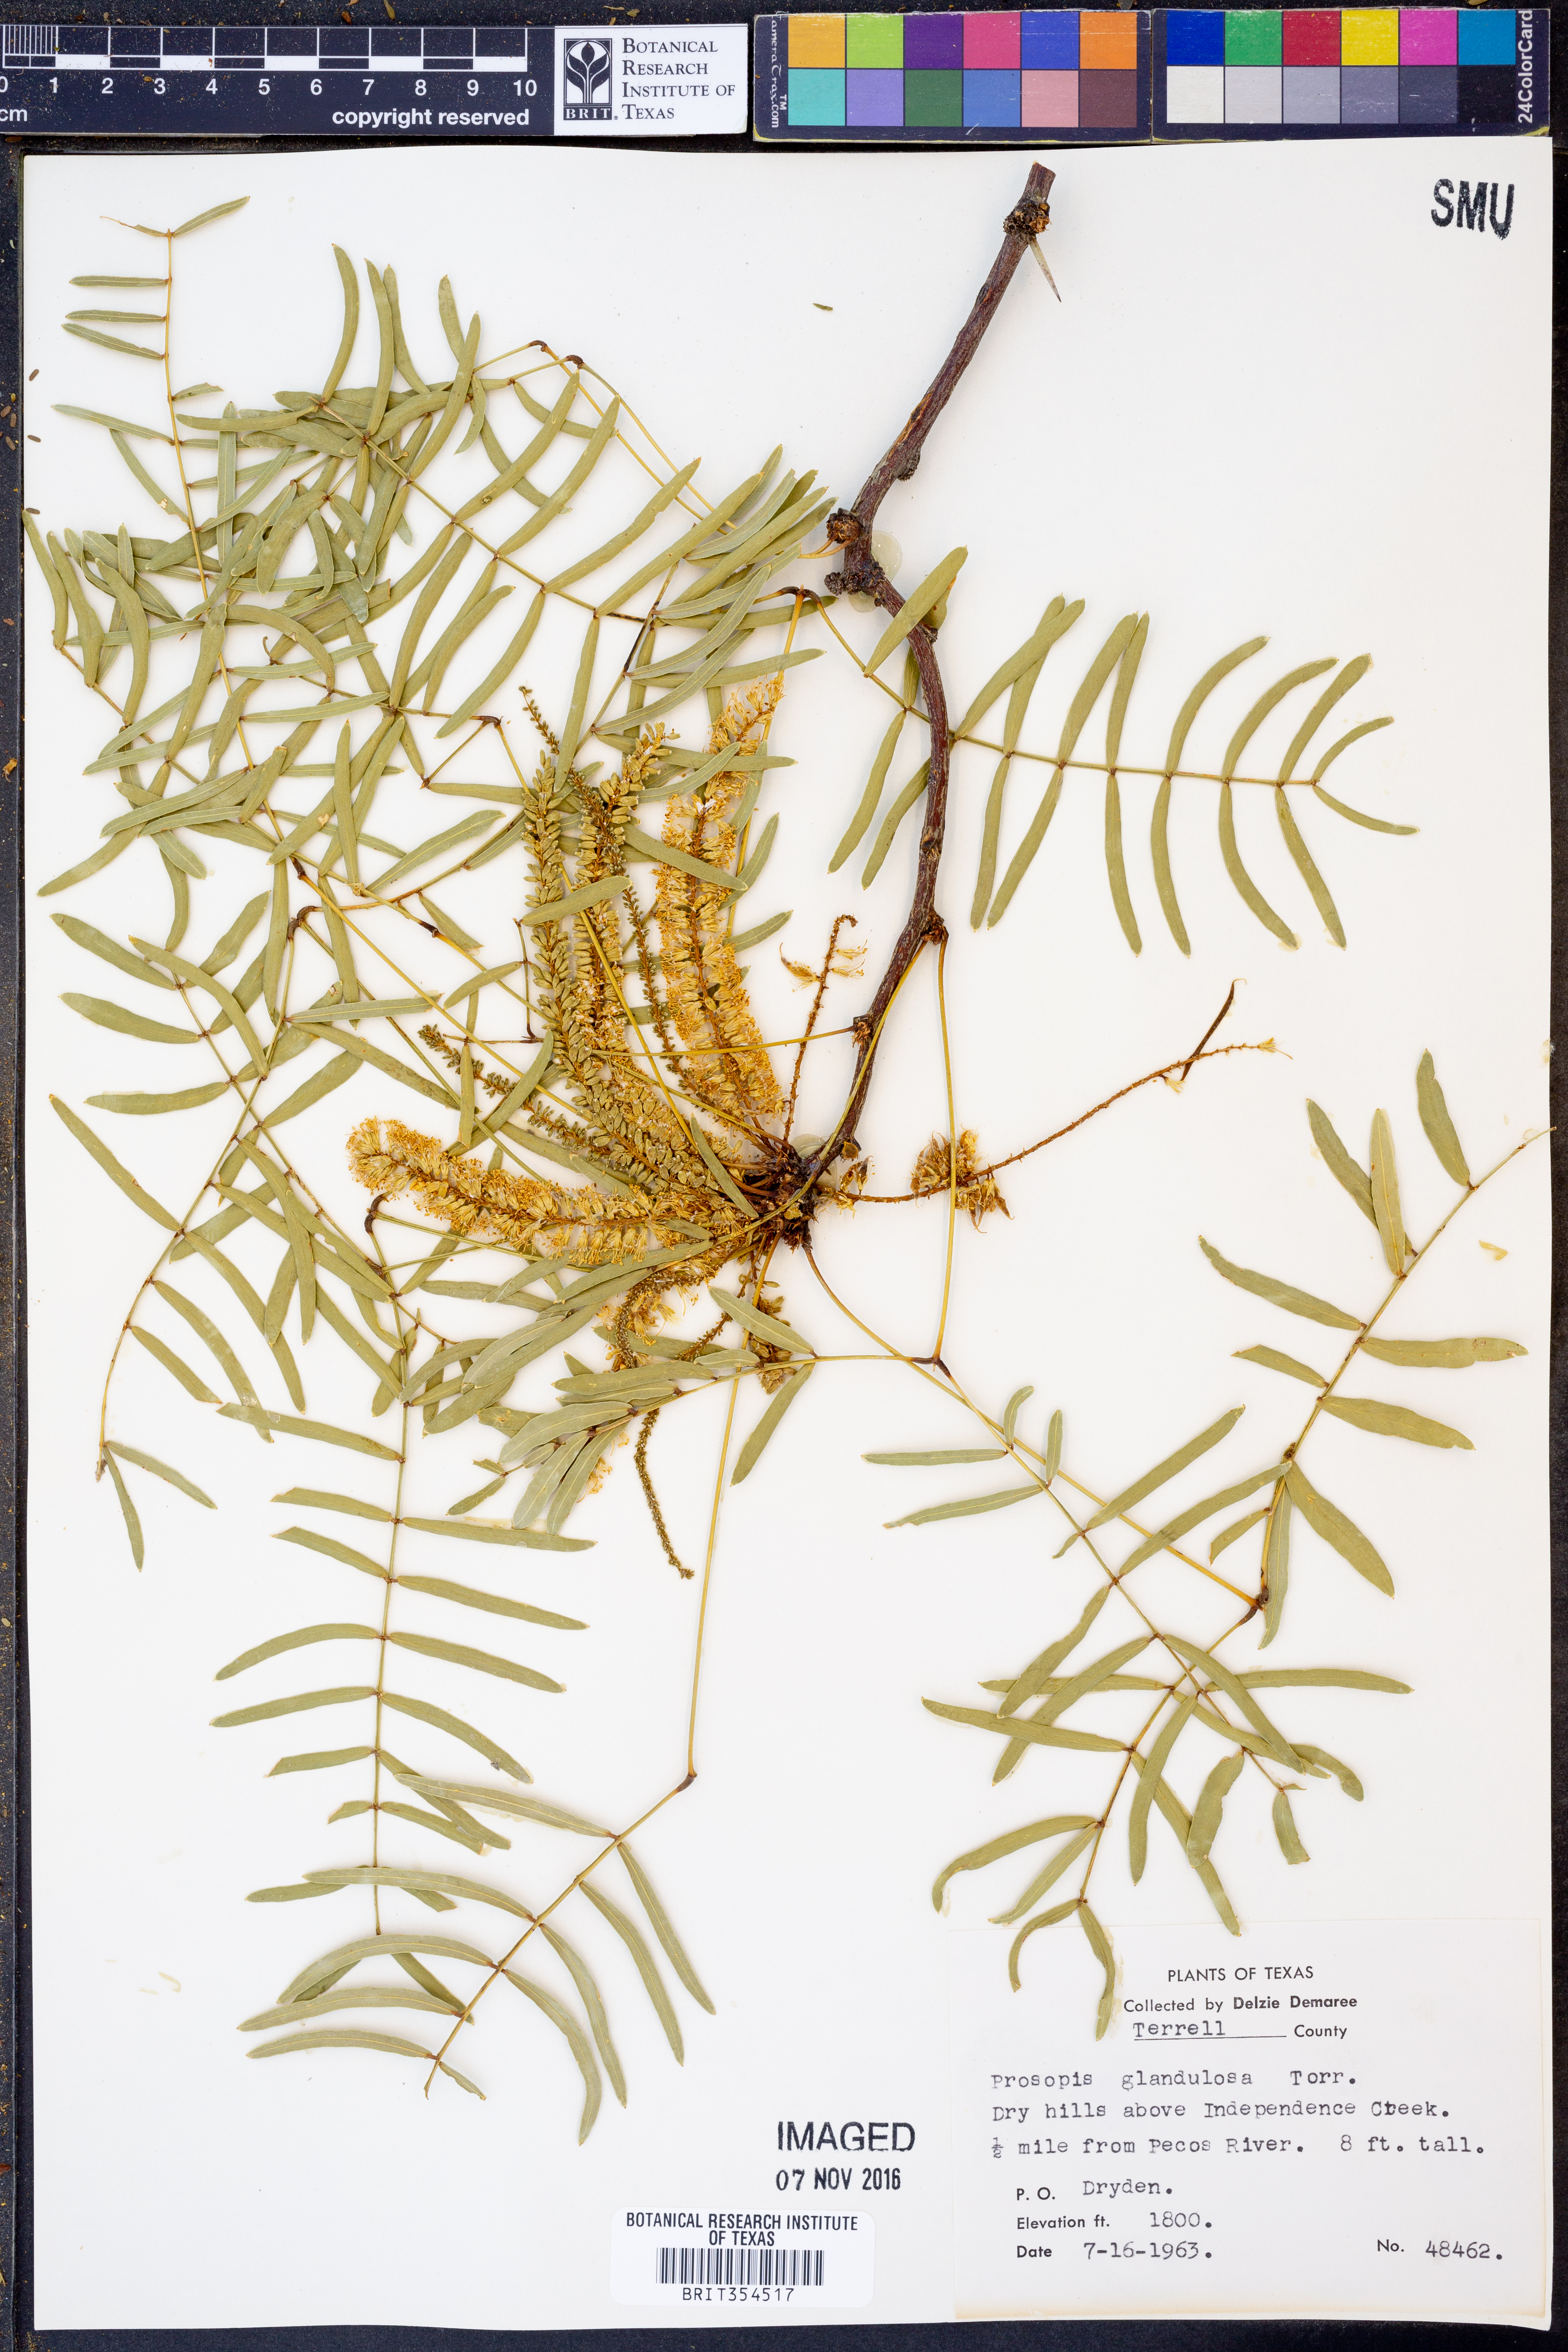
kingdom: Plantae
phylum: Tracheophyta
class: Magnoliopsida
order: Fabales
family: Fabaceae
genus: Prosopis
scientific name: Prosopis glandulosa
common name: Honey mesquite
